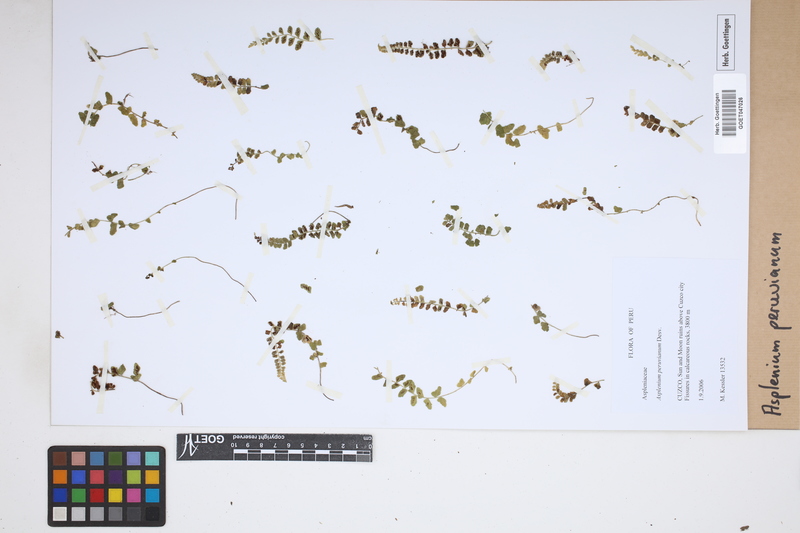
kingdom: Plantae
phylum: Tracheophyta
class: Polypodiopsida
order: Polypodiales
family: Aspleniaceae
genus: Asplenium
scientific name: Asplenium peruvianum
